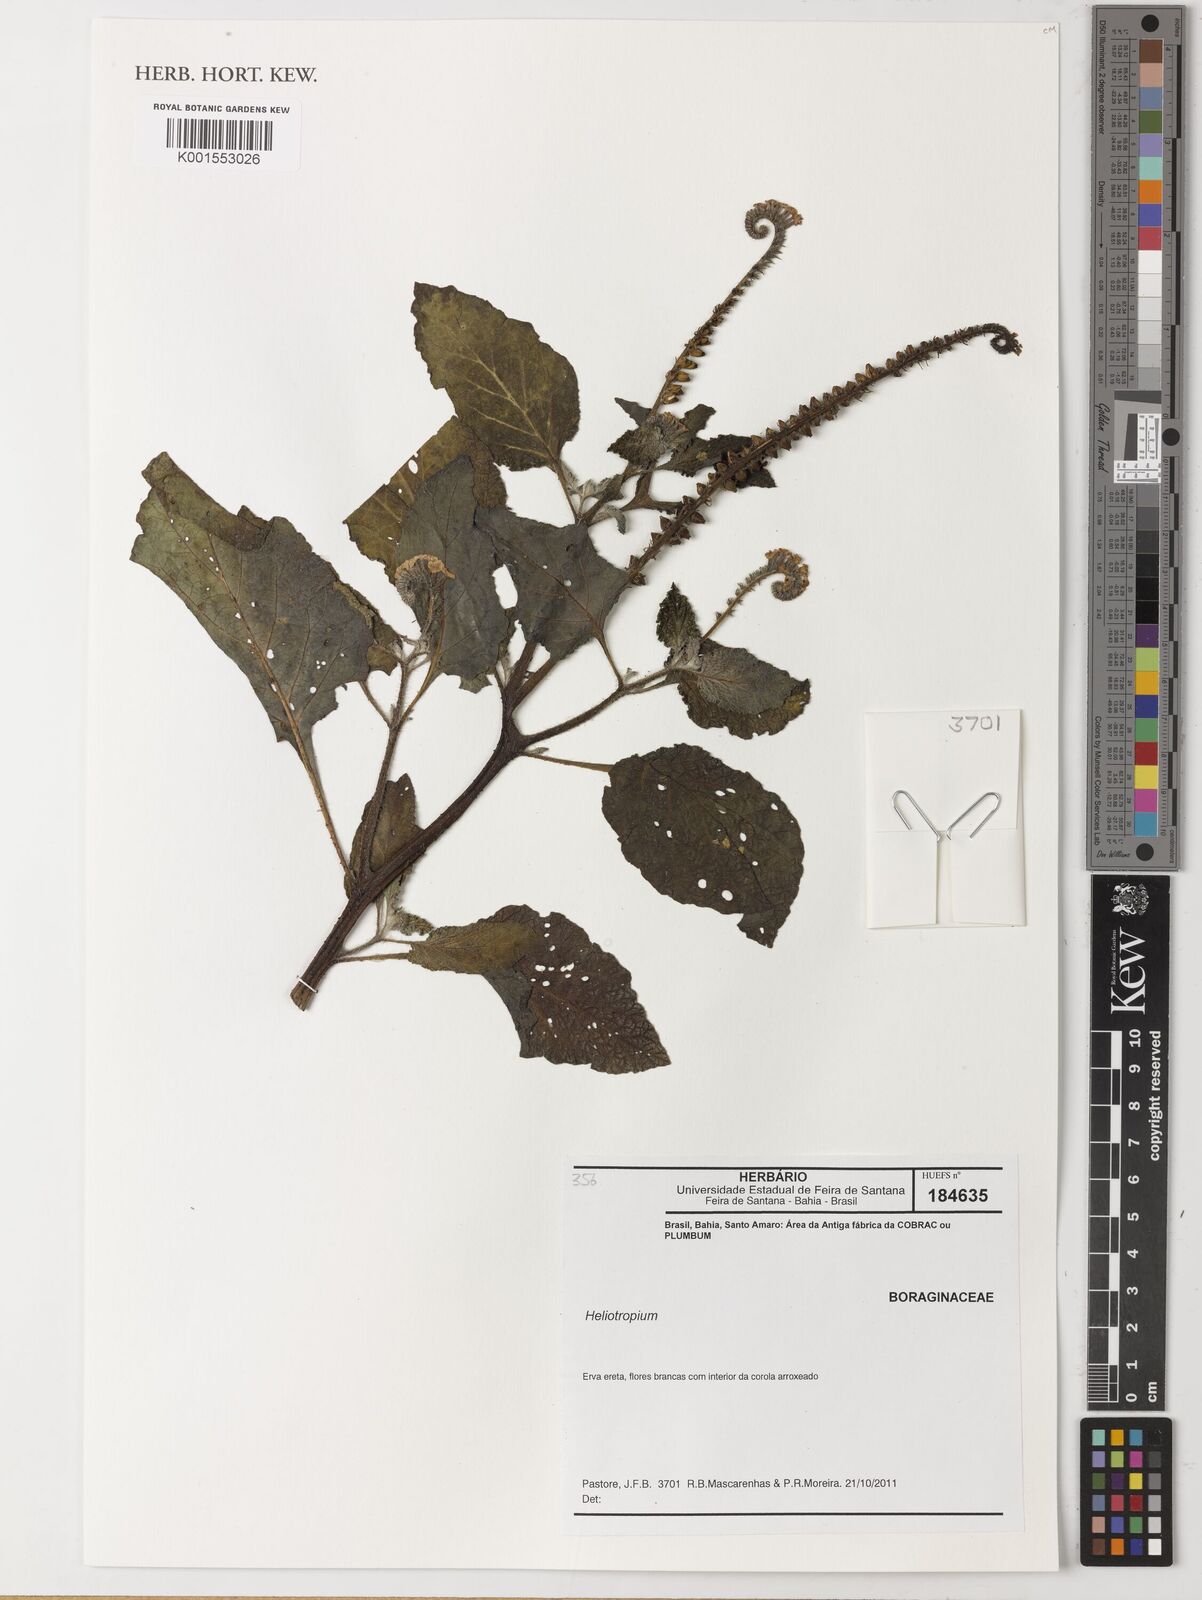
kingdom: Plantae
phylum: Tracheophyta
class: Magnoliopsida
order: Boraginales
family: Heliotropiaceae
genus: Heliotropium
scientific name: Heliotropium
